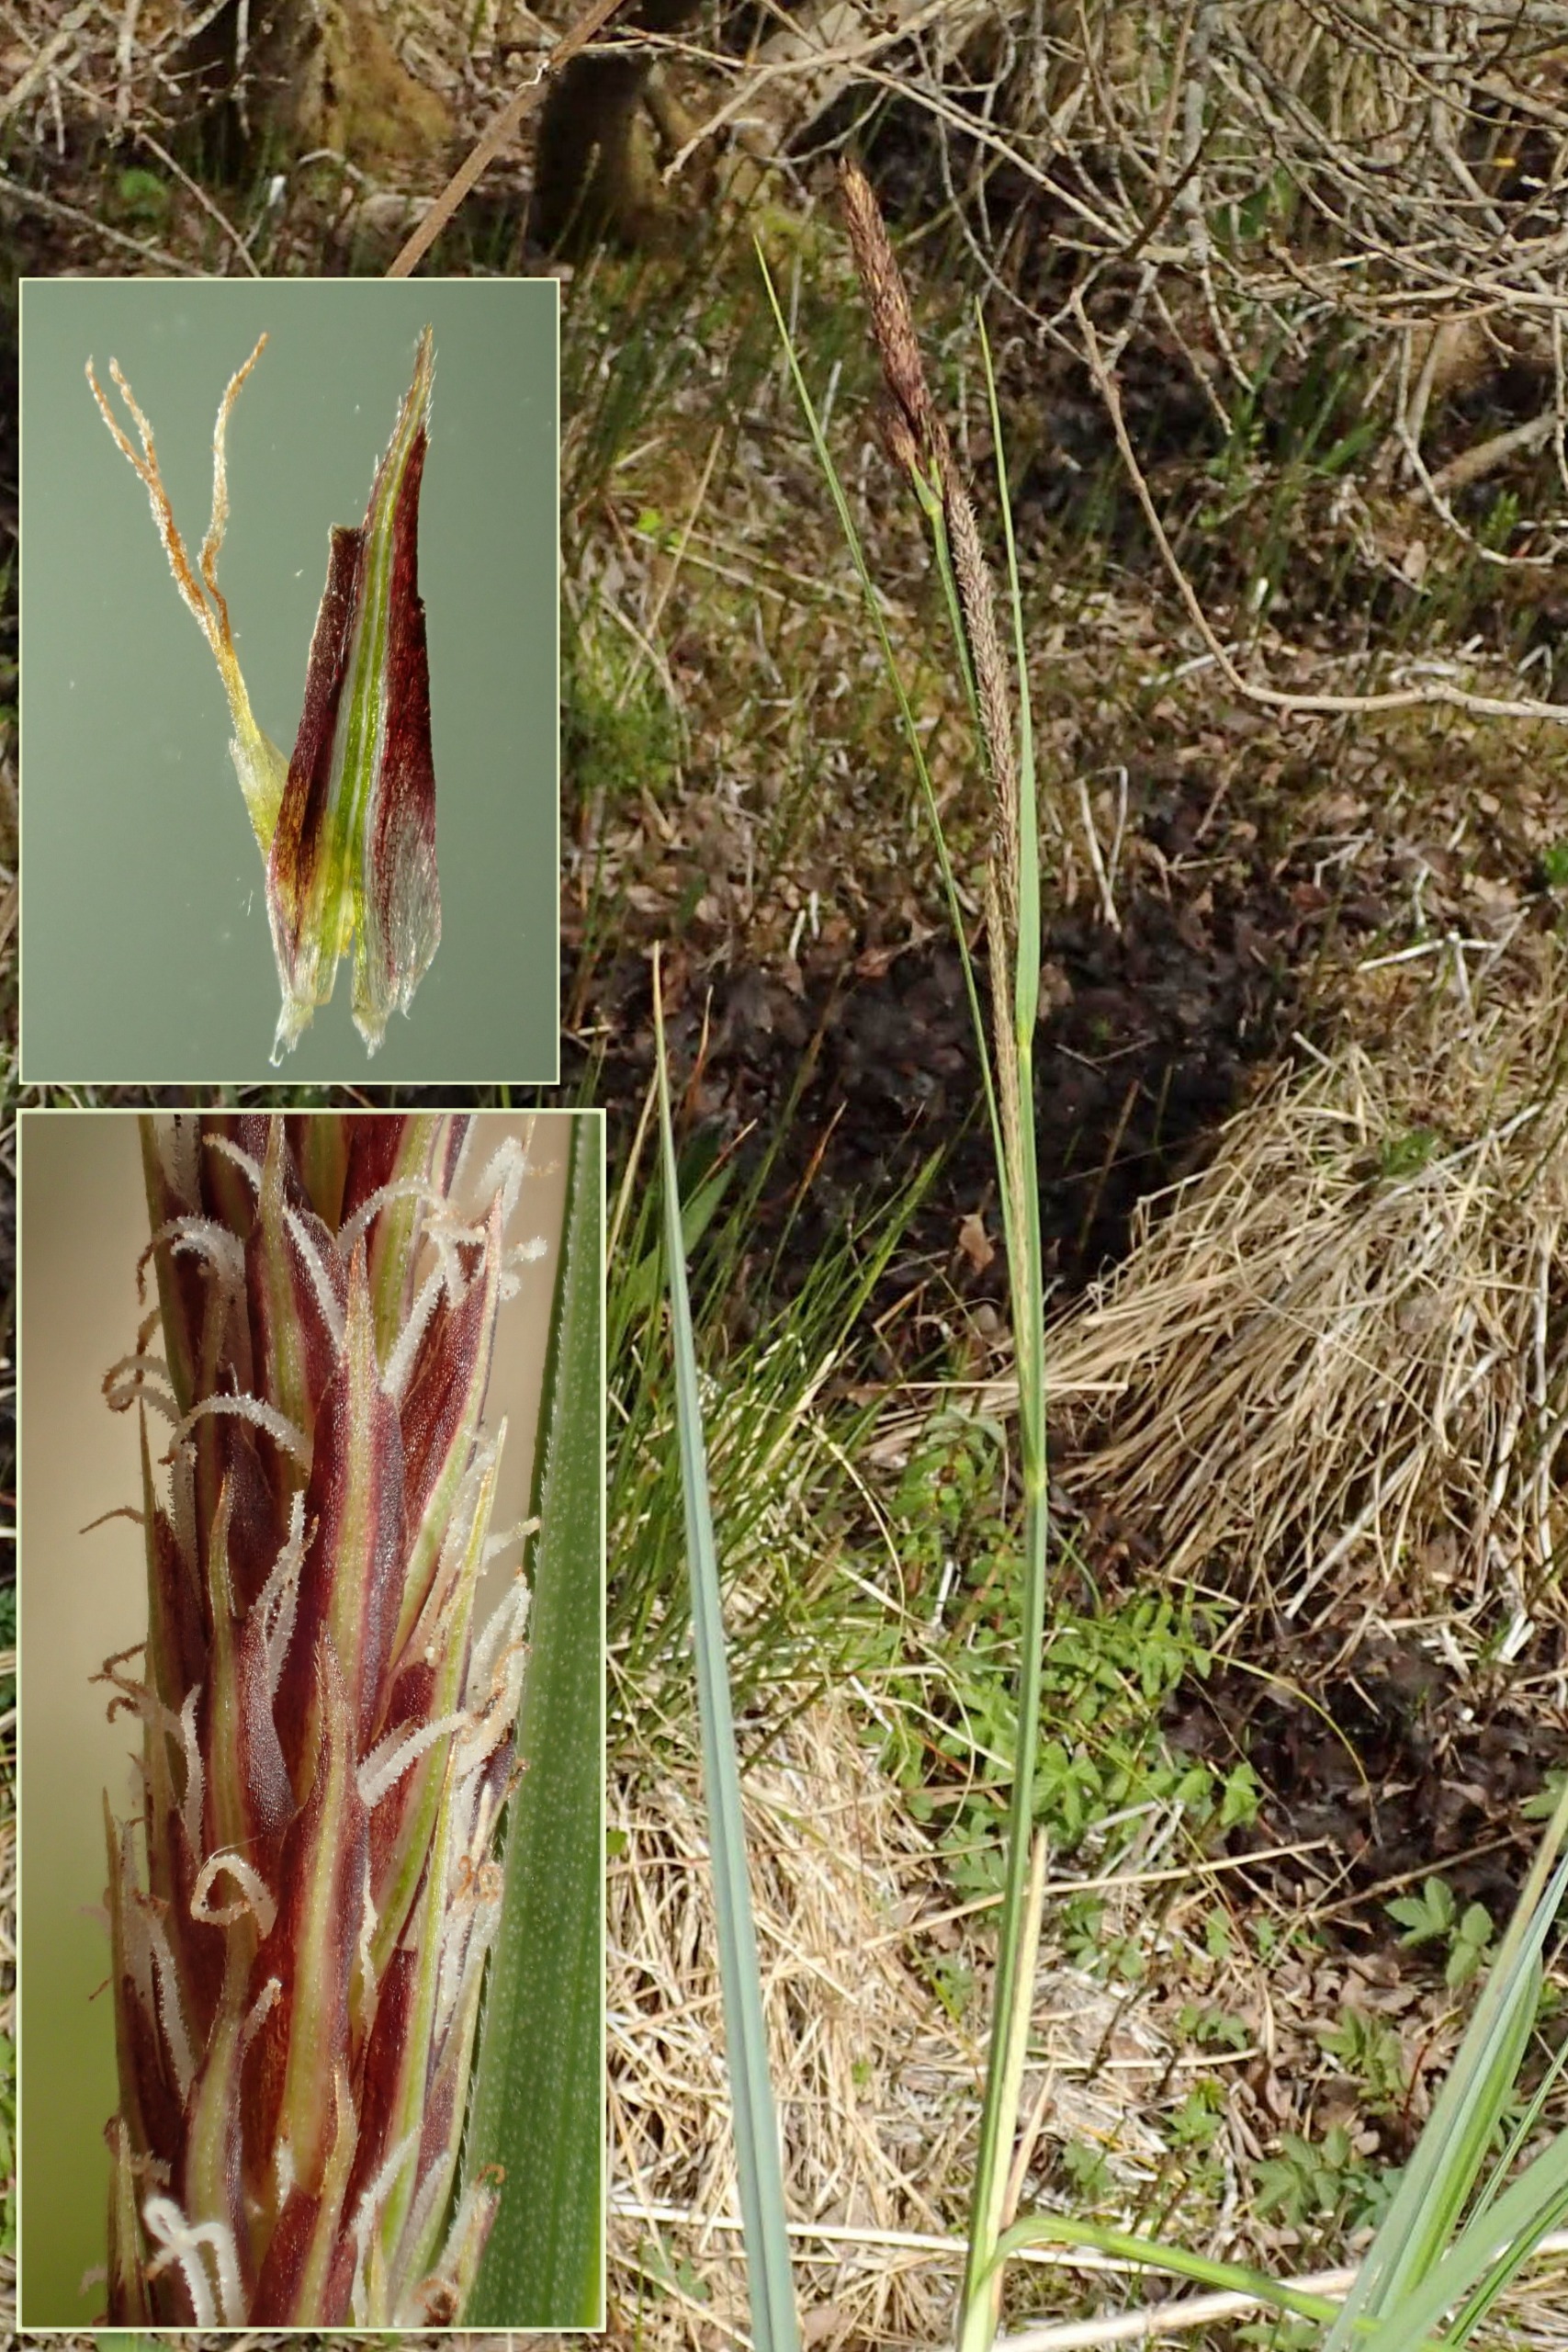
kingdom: Plantae
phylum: Tracheophyta
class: Liliopsida
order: Poales
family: Cyperaceae
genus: Carex
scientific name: Carex acutiformis
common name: Kær-star
